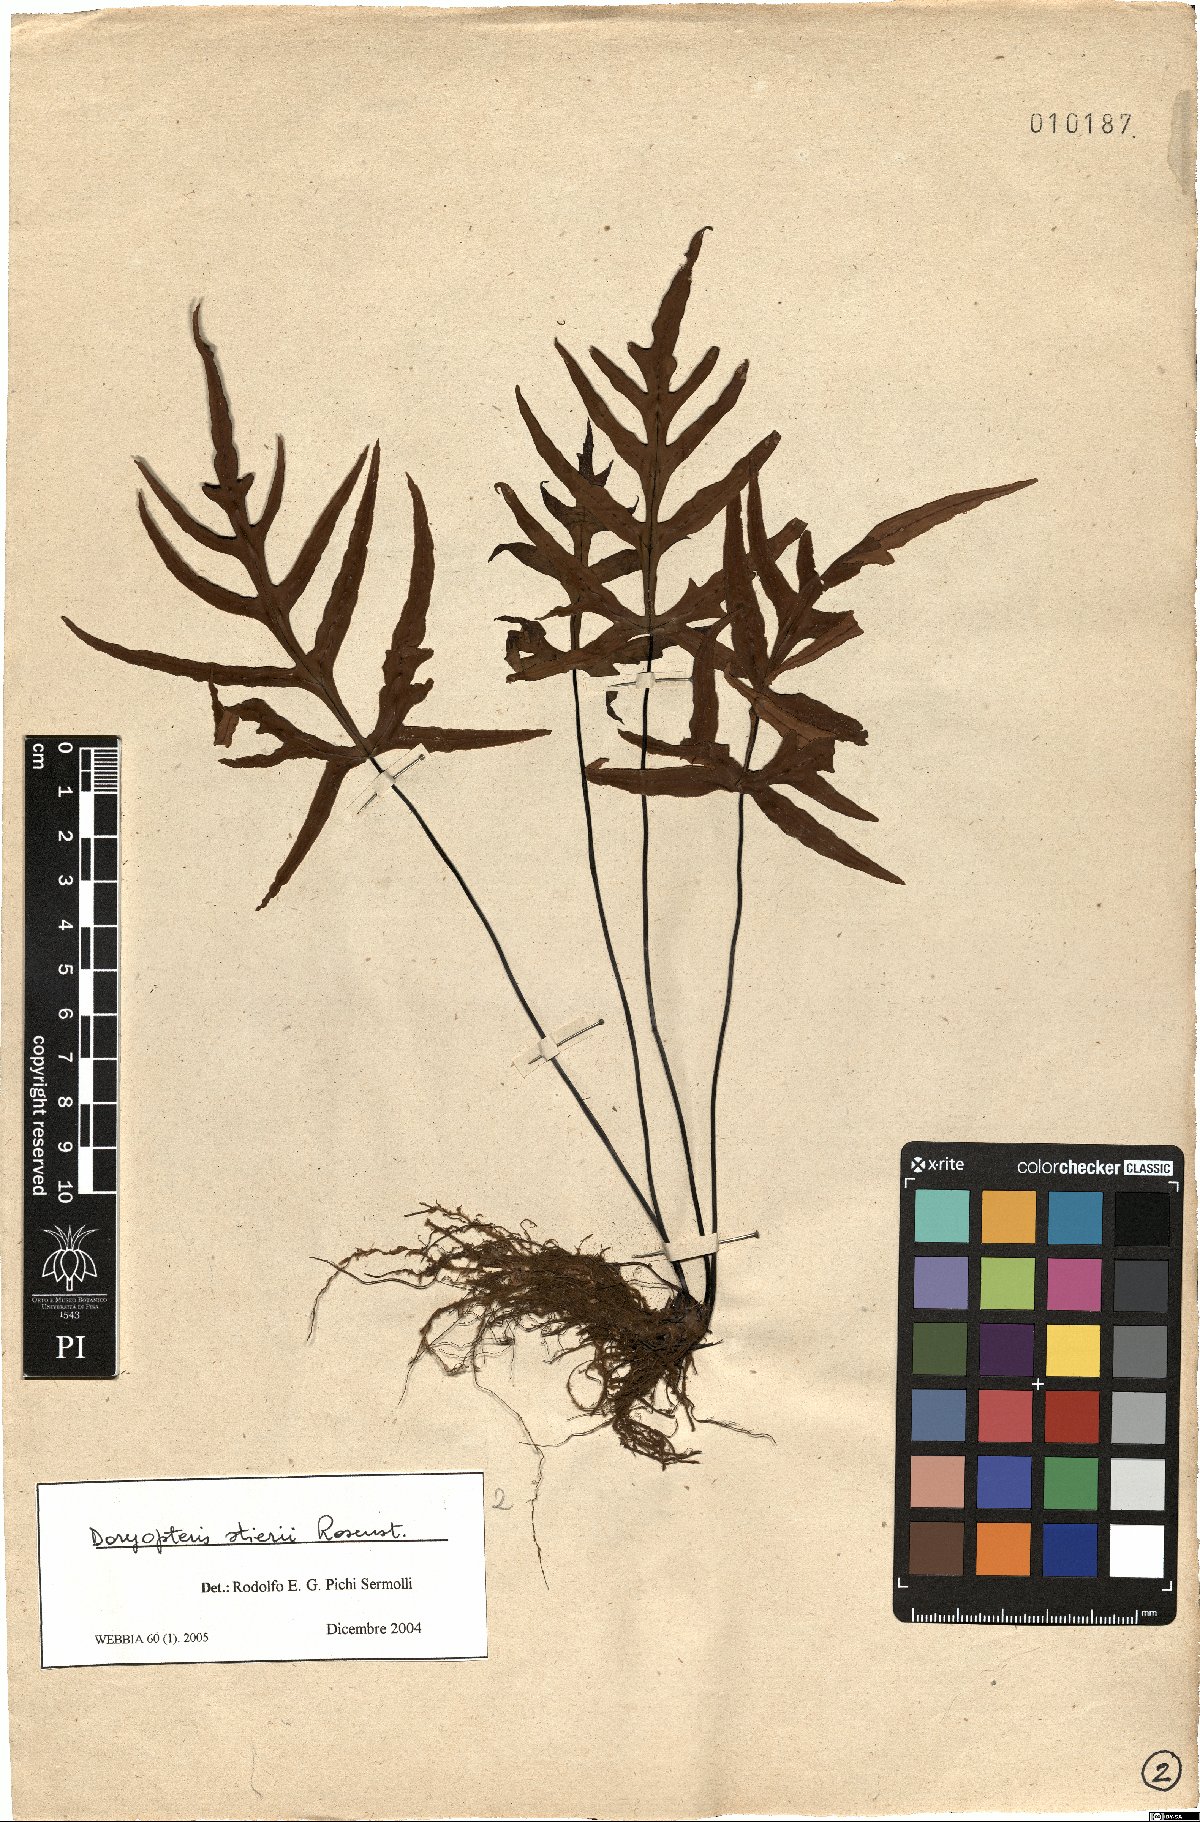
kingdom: Plantae
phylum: Tracheophyta
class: Polypodiopsida
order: Polypodiales
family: Pteridaceae
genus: Doryopteris
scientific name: Doryopteris stieri
